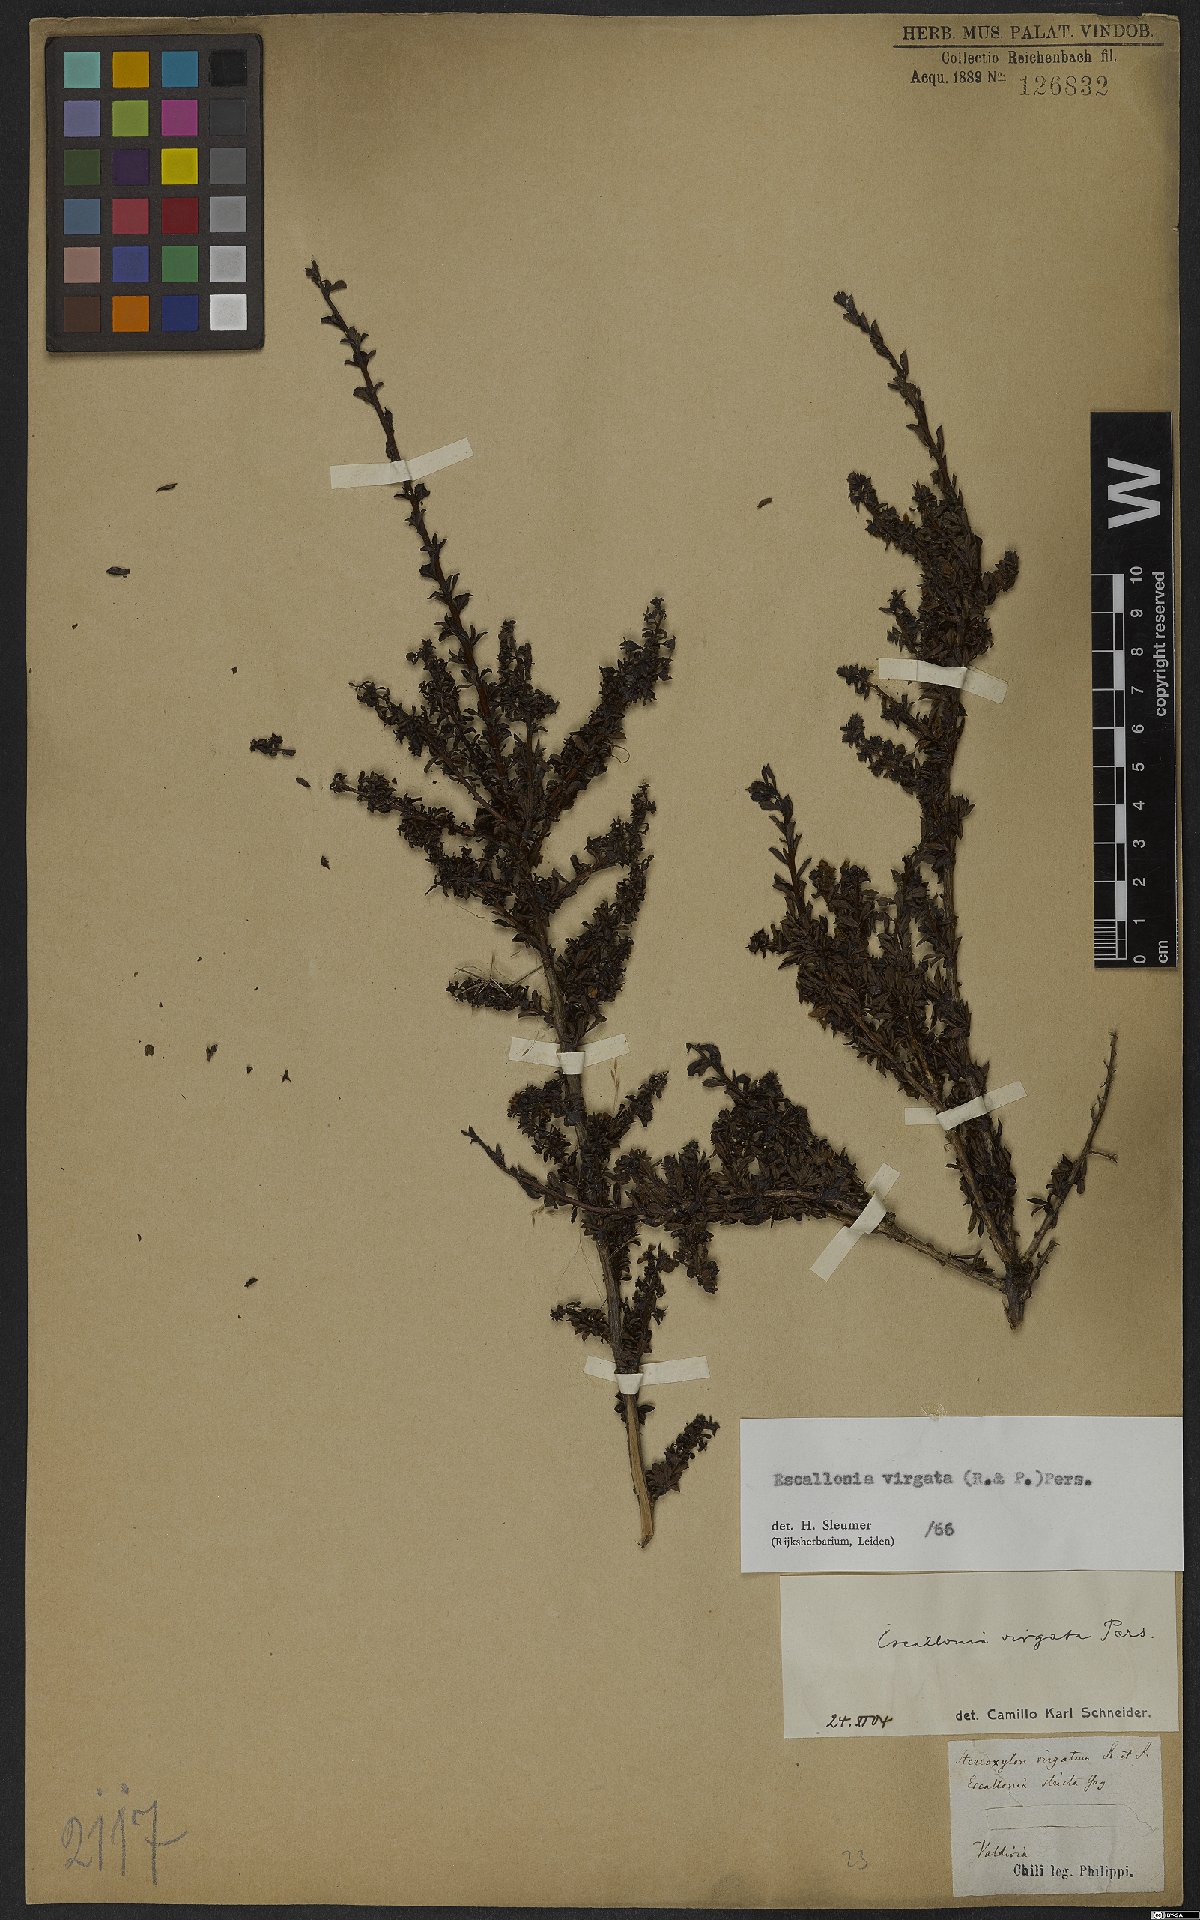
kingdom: Plantae
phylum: Tracheophyta
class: Magnoliopsida
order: Escalloniales
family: Escalloniaceae
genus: Escallonia
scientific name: Escallonia virgata
